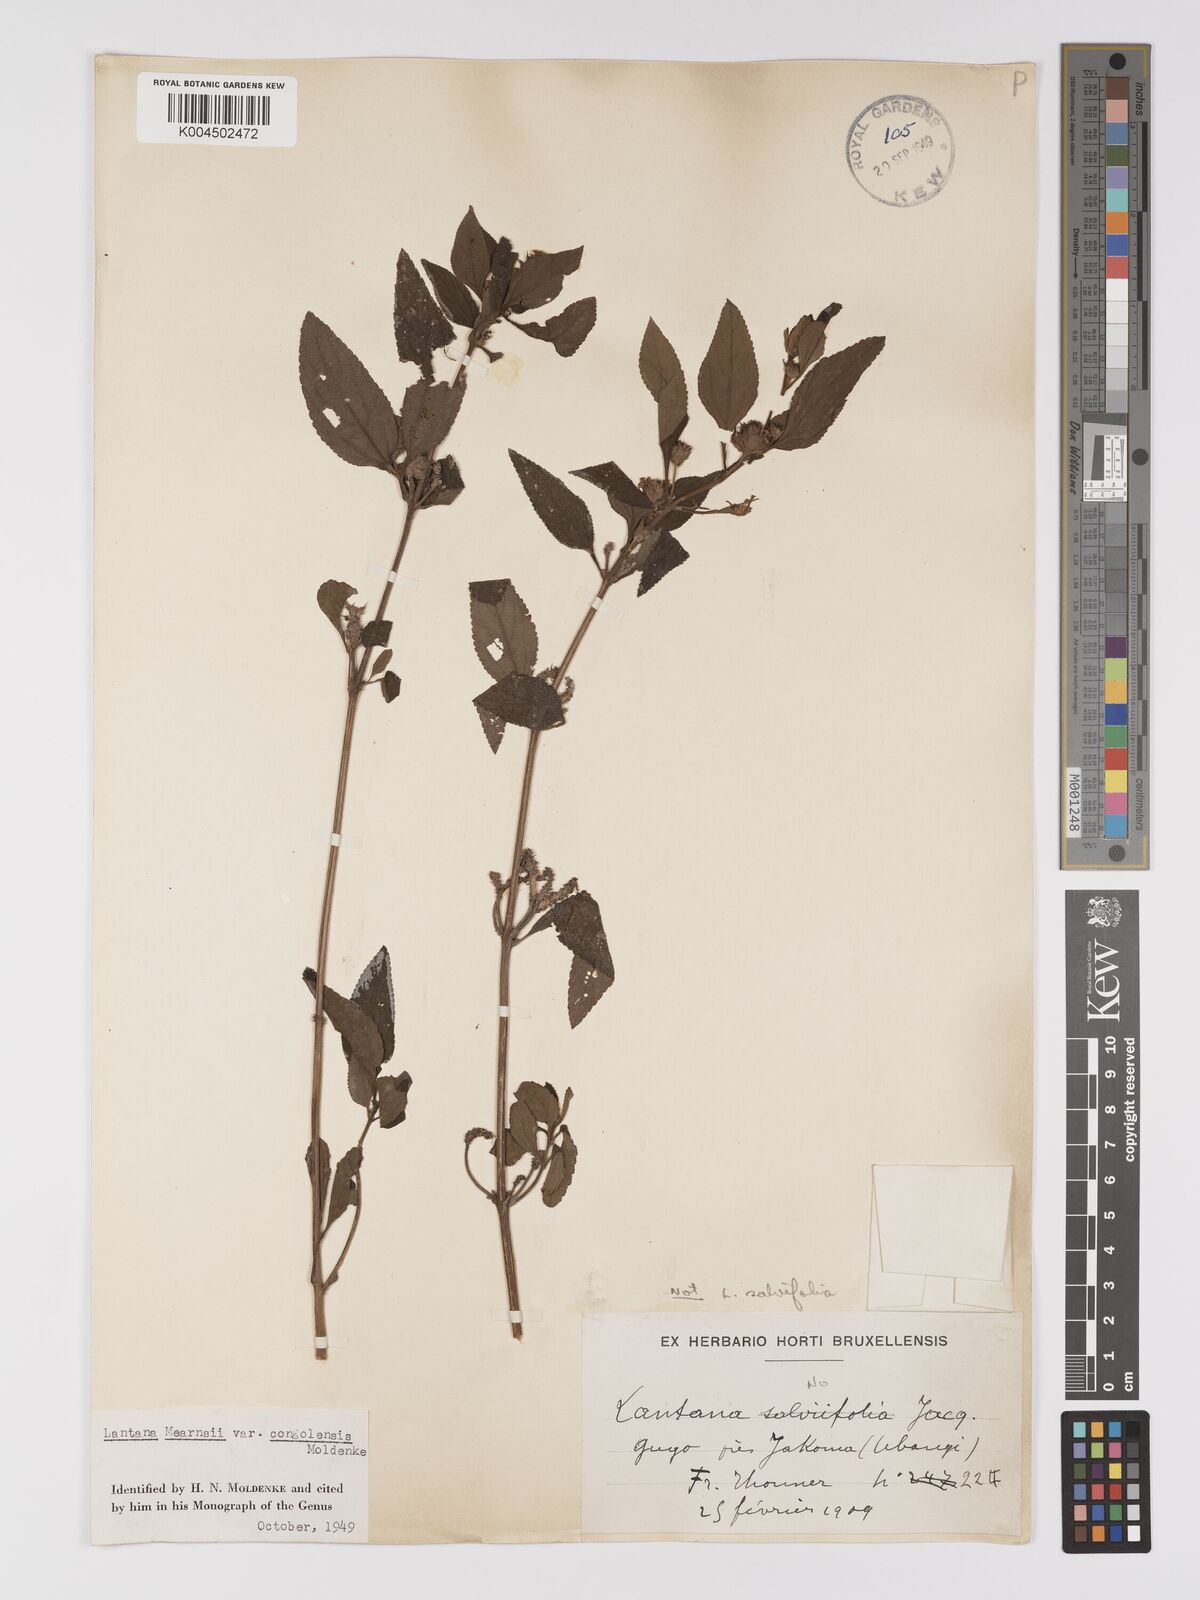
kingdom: Plantae
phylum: Tracheophyta
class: Magnoliopsida
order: Lamiales
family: Verbenaceae
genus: Lantana
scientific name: Lantana
